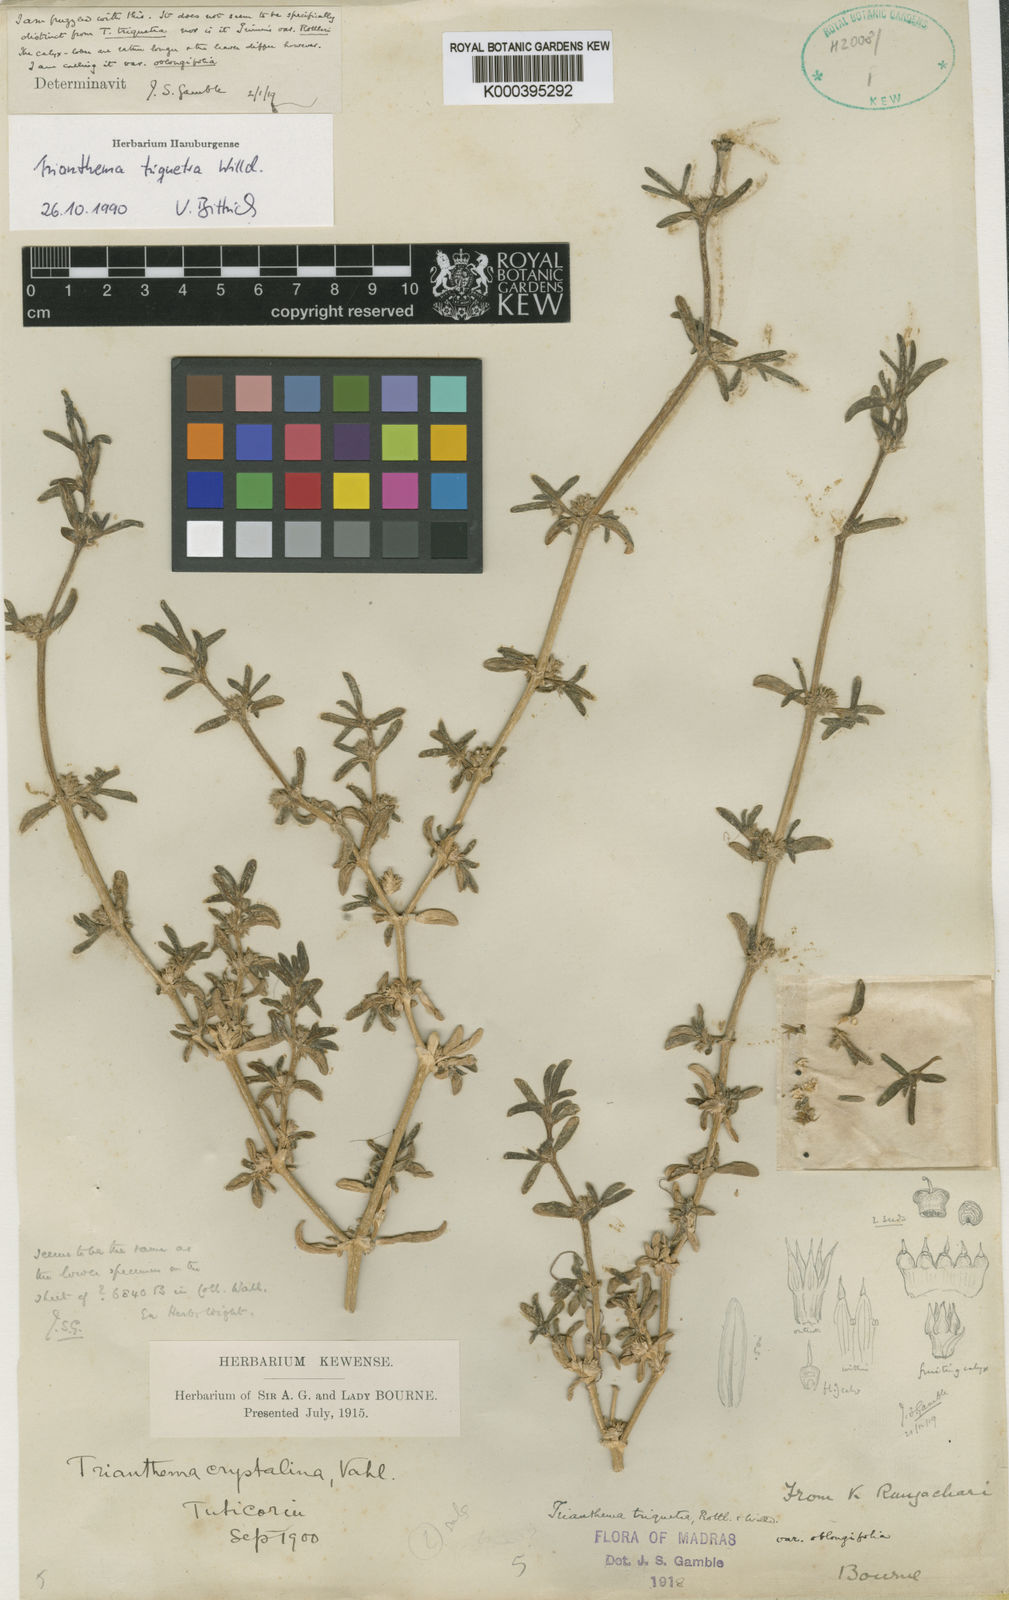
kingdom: Plantae
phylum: Tracheophyta
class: Magnoliopsida
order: Caryophyllales
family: Aizoaceae
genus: Trianthema
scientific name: Trianthema triquetrum
